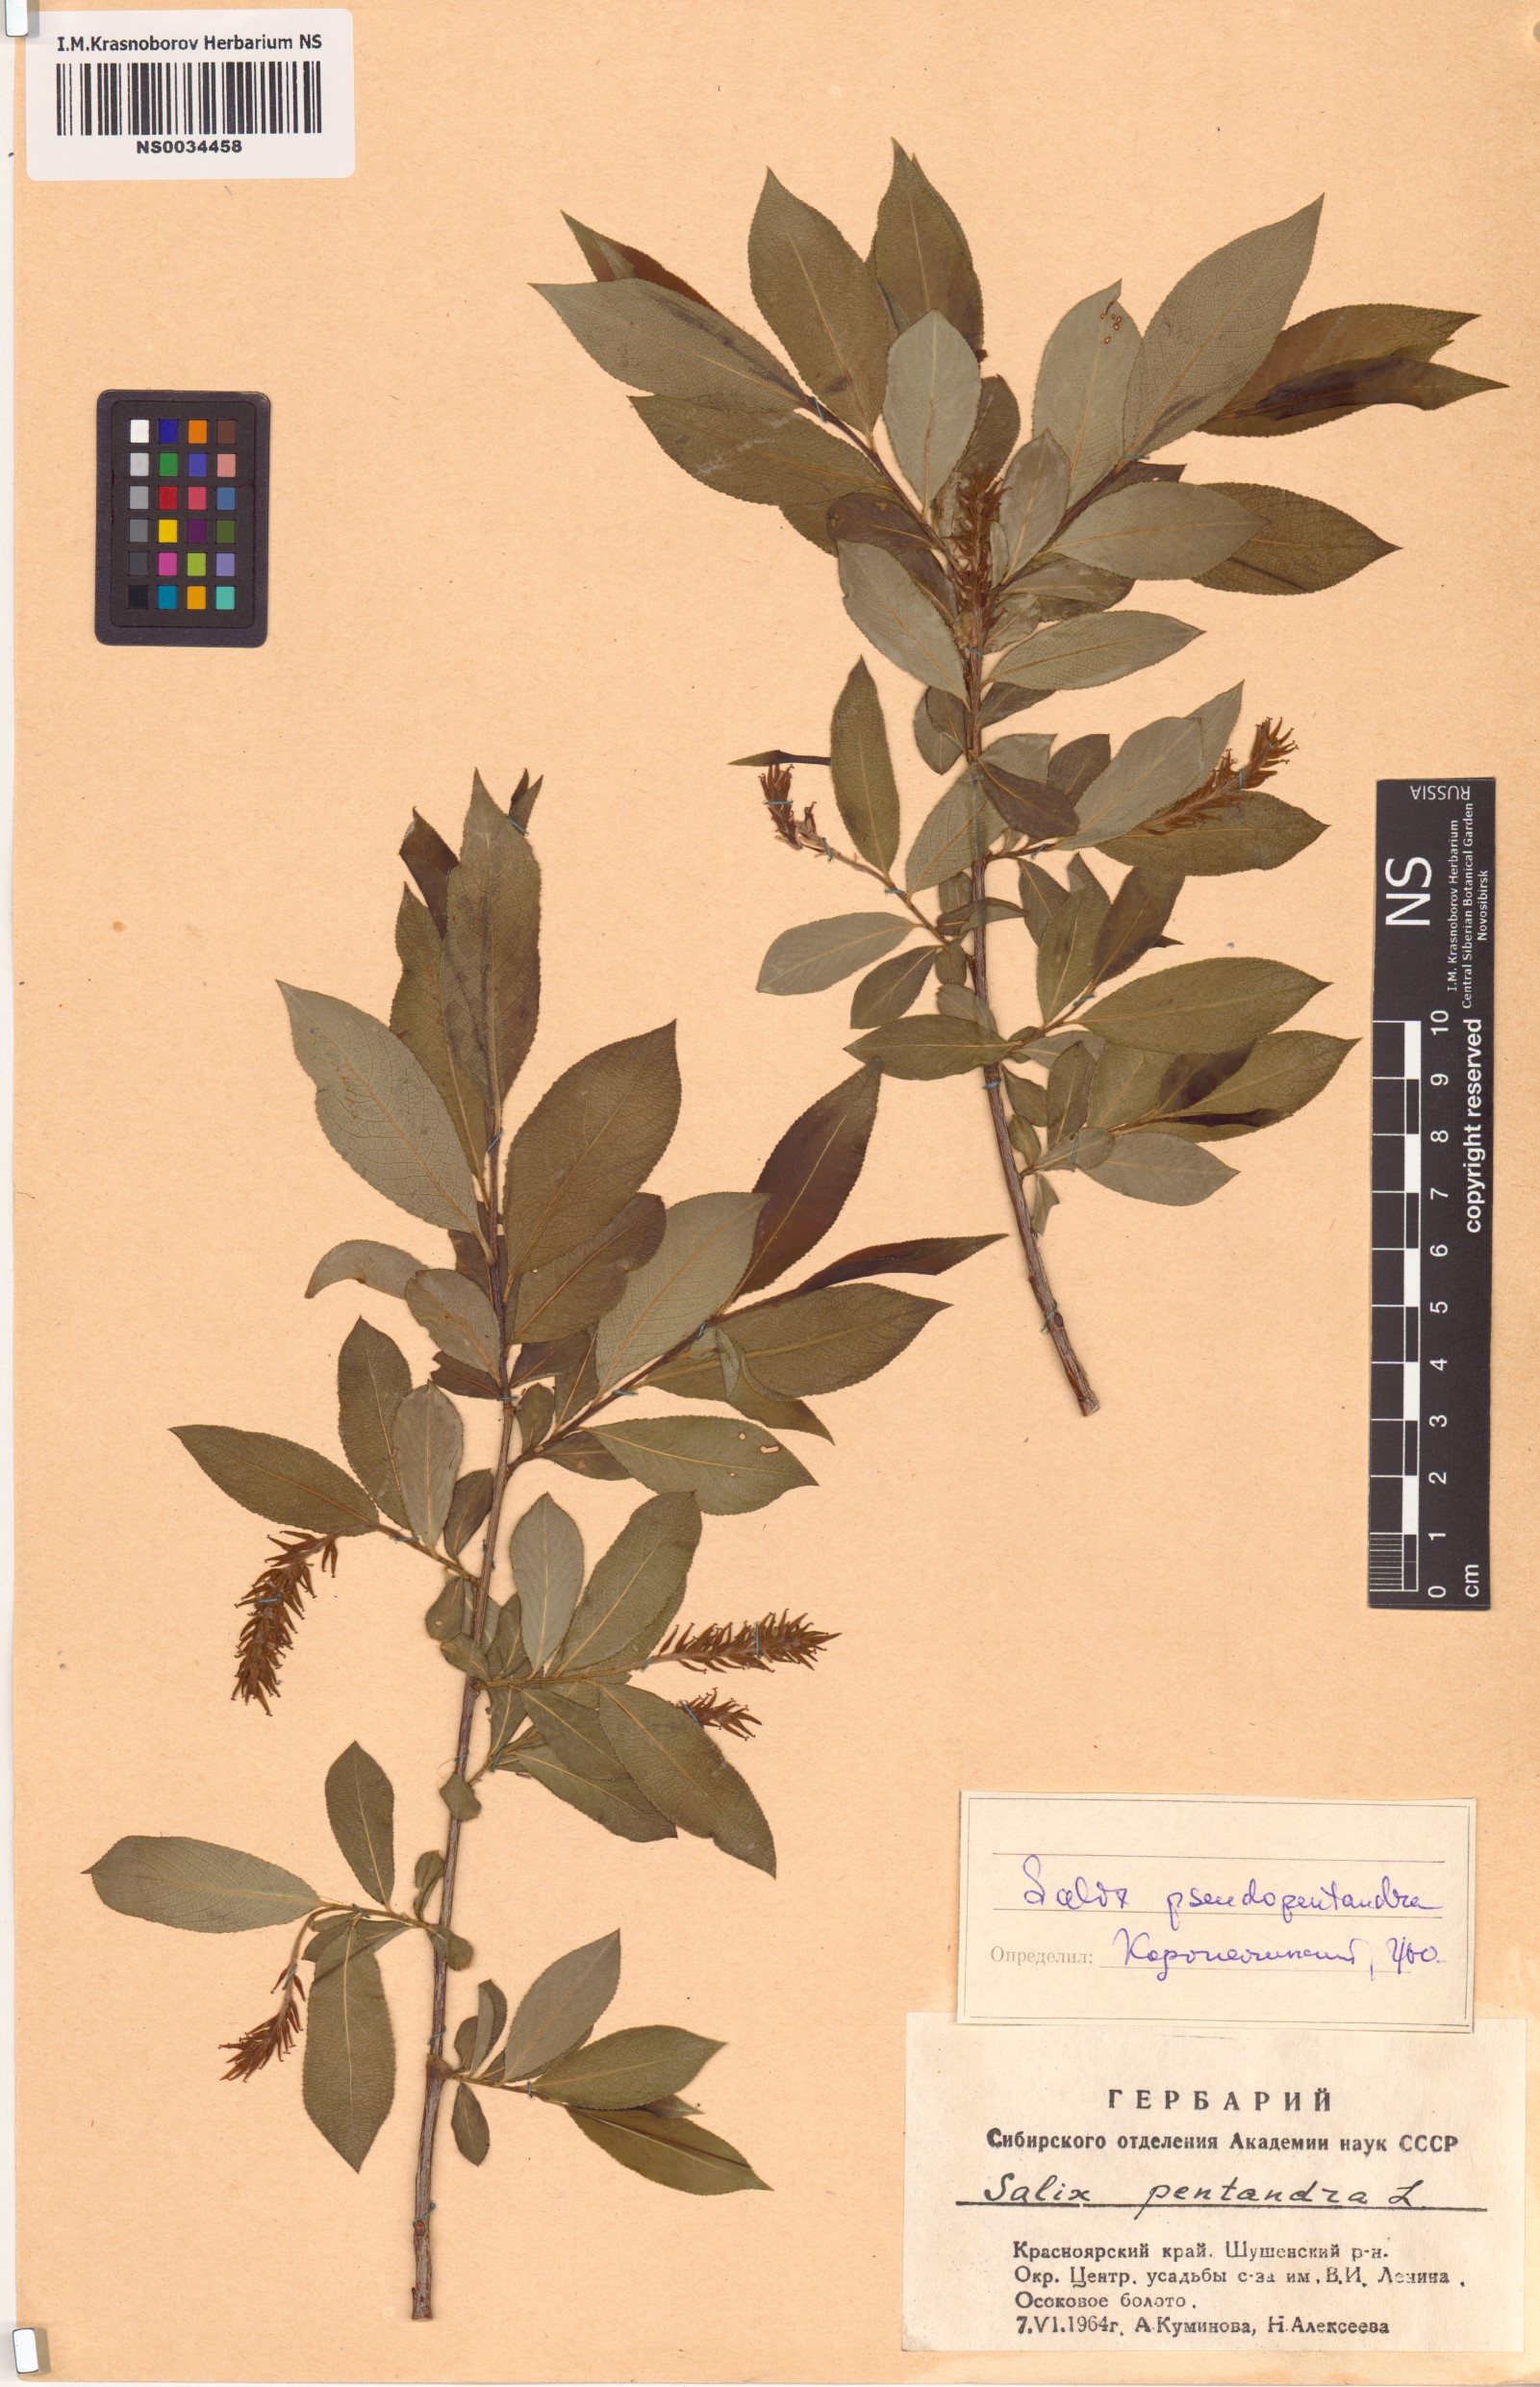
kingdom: Plantae
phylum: Tracheophyta
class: Magnoliopsida
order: Malpighiales
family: Salicaceae
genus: Salix
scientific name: Salix pseudopentandra
